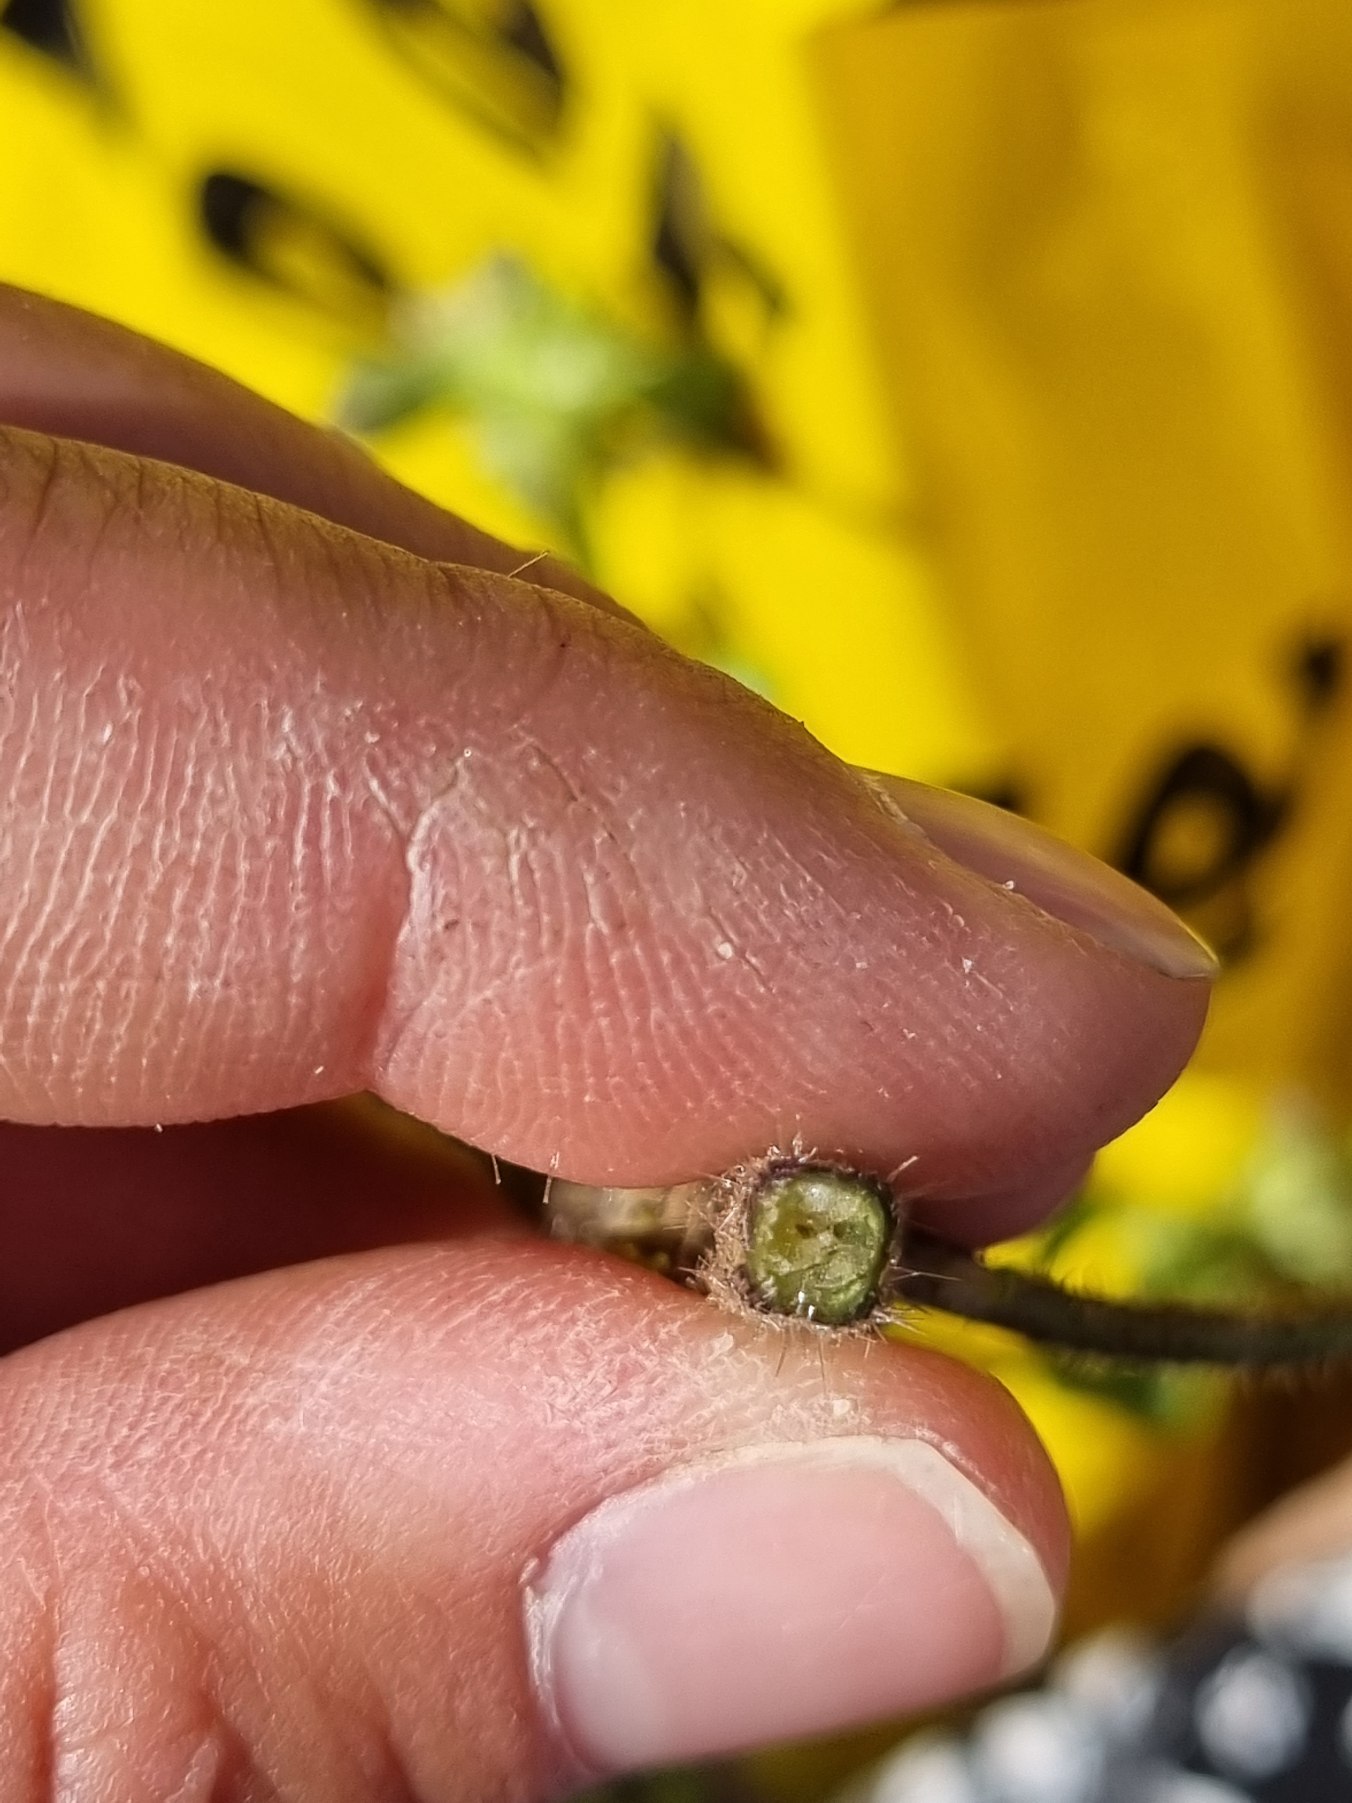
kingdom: Plantae
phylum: Tracheophyta
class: Magnoliopsida
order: Lamiales
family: Lamiaceae
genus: Galeopsis
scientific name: Galeopsis bifida
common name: Skov-hanekro
